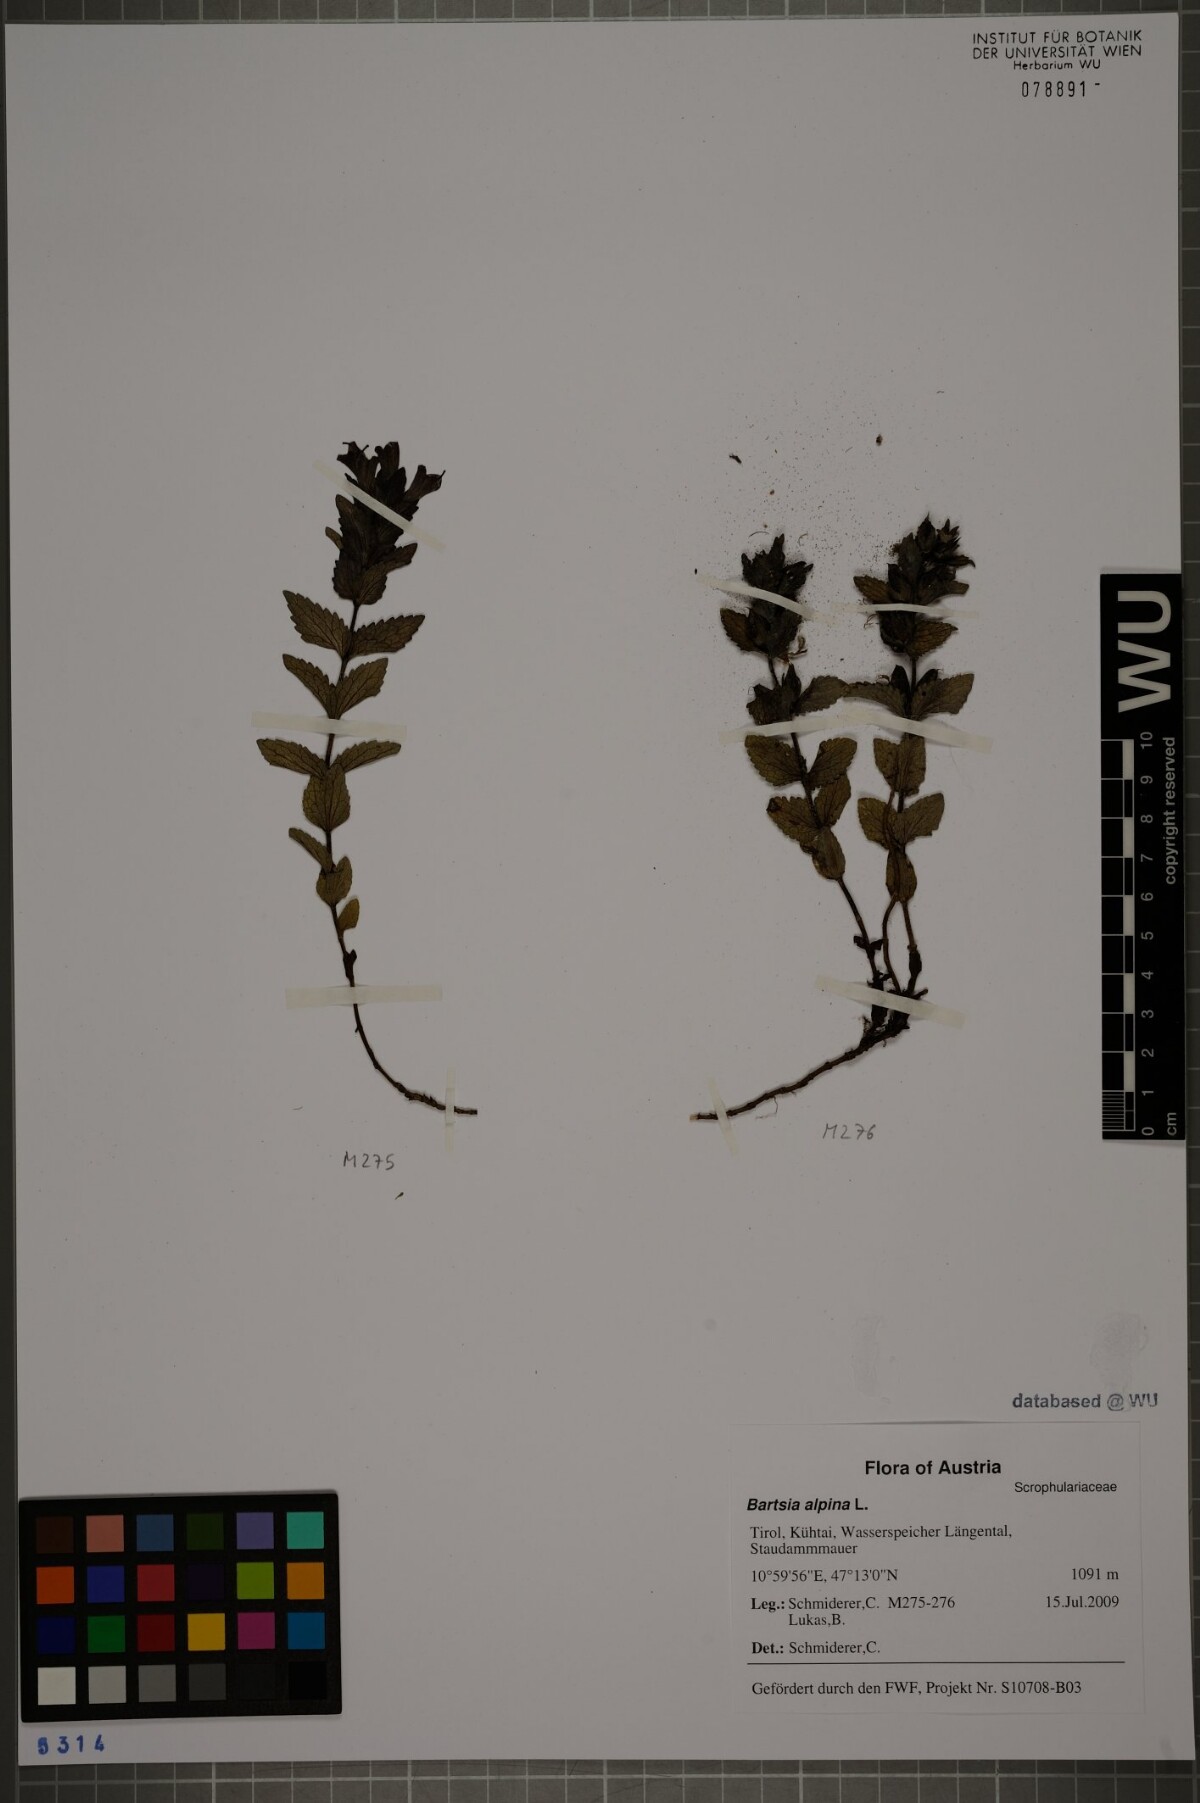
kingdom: Plantae
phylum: Tracheophyta
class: Magnoliopsida
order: Lamiales
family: Orobanchaceae
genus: Bartsia
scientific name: Bartsia alpina
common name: Alpine bartsia
